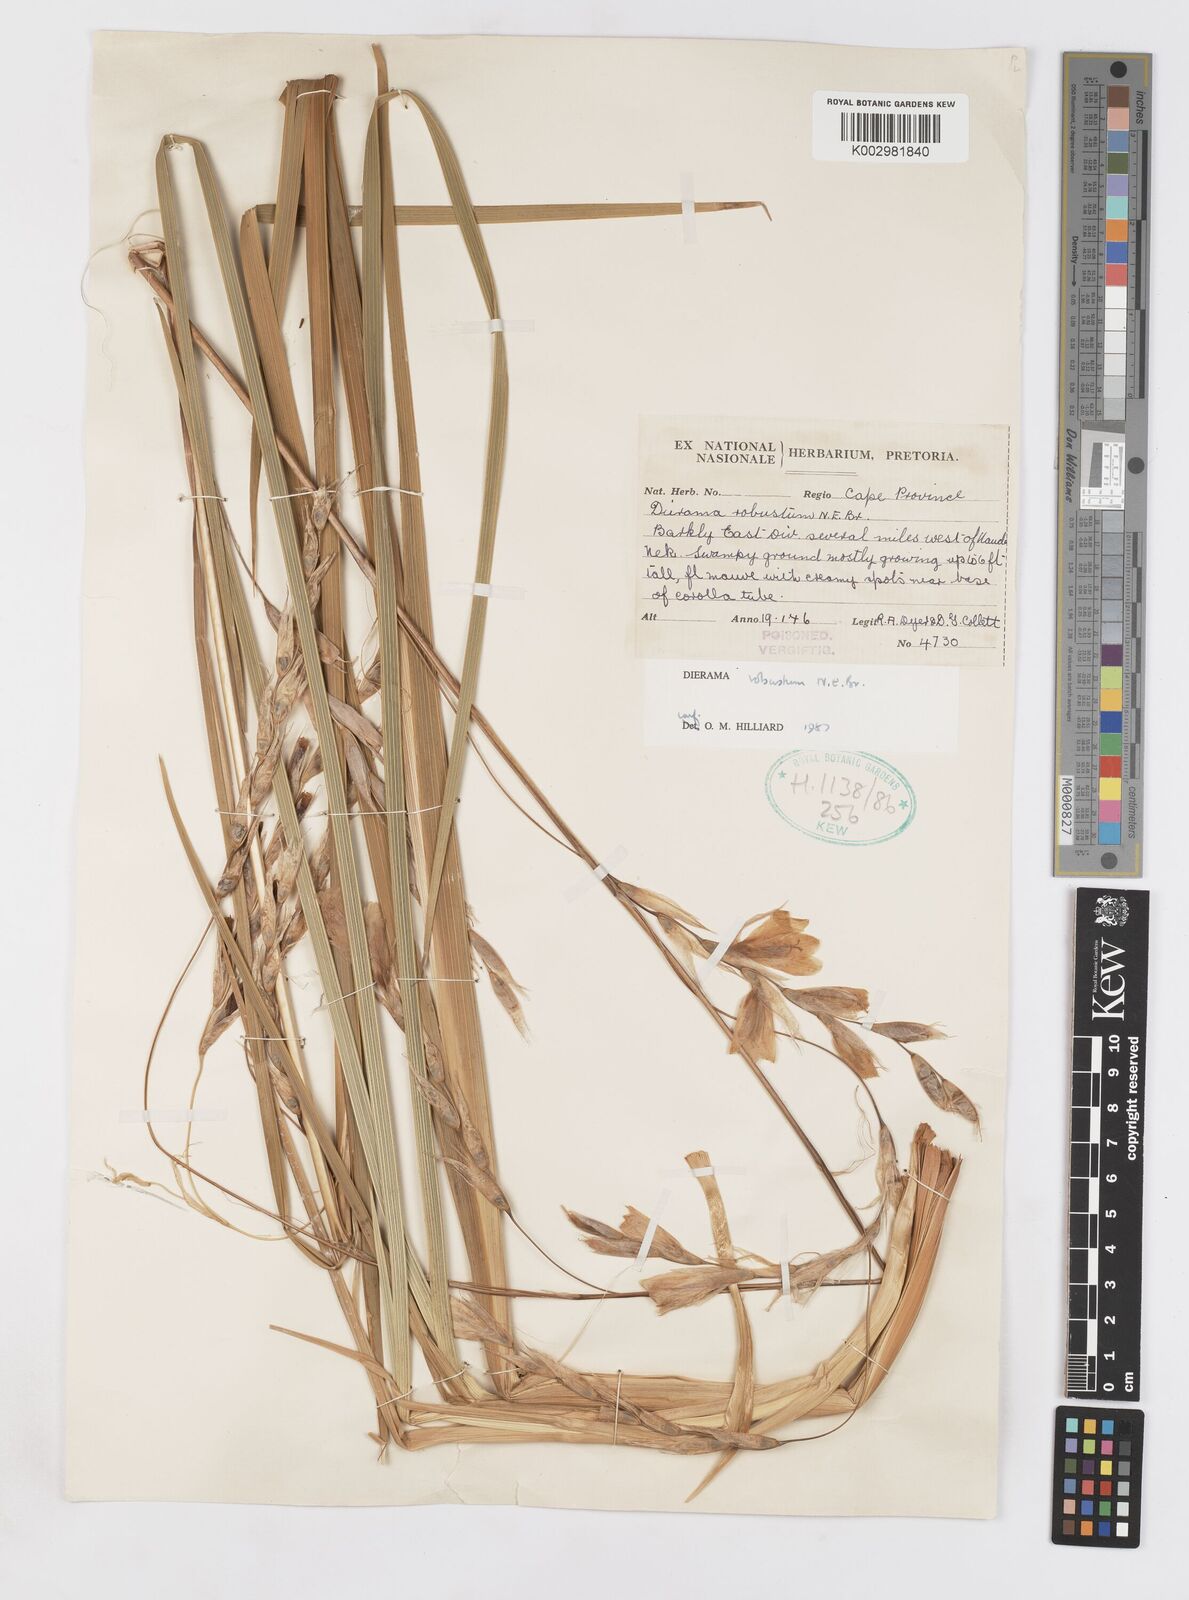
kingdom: Plantae
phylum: Tracheophyta
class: Liliopsida
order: Asparagales
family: Iridaceae
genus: Dierama
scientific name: Dierama robustum
